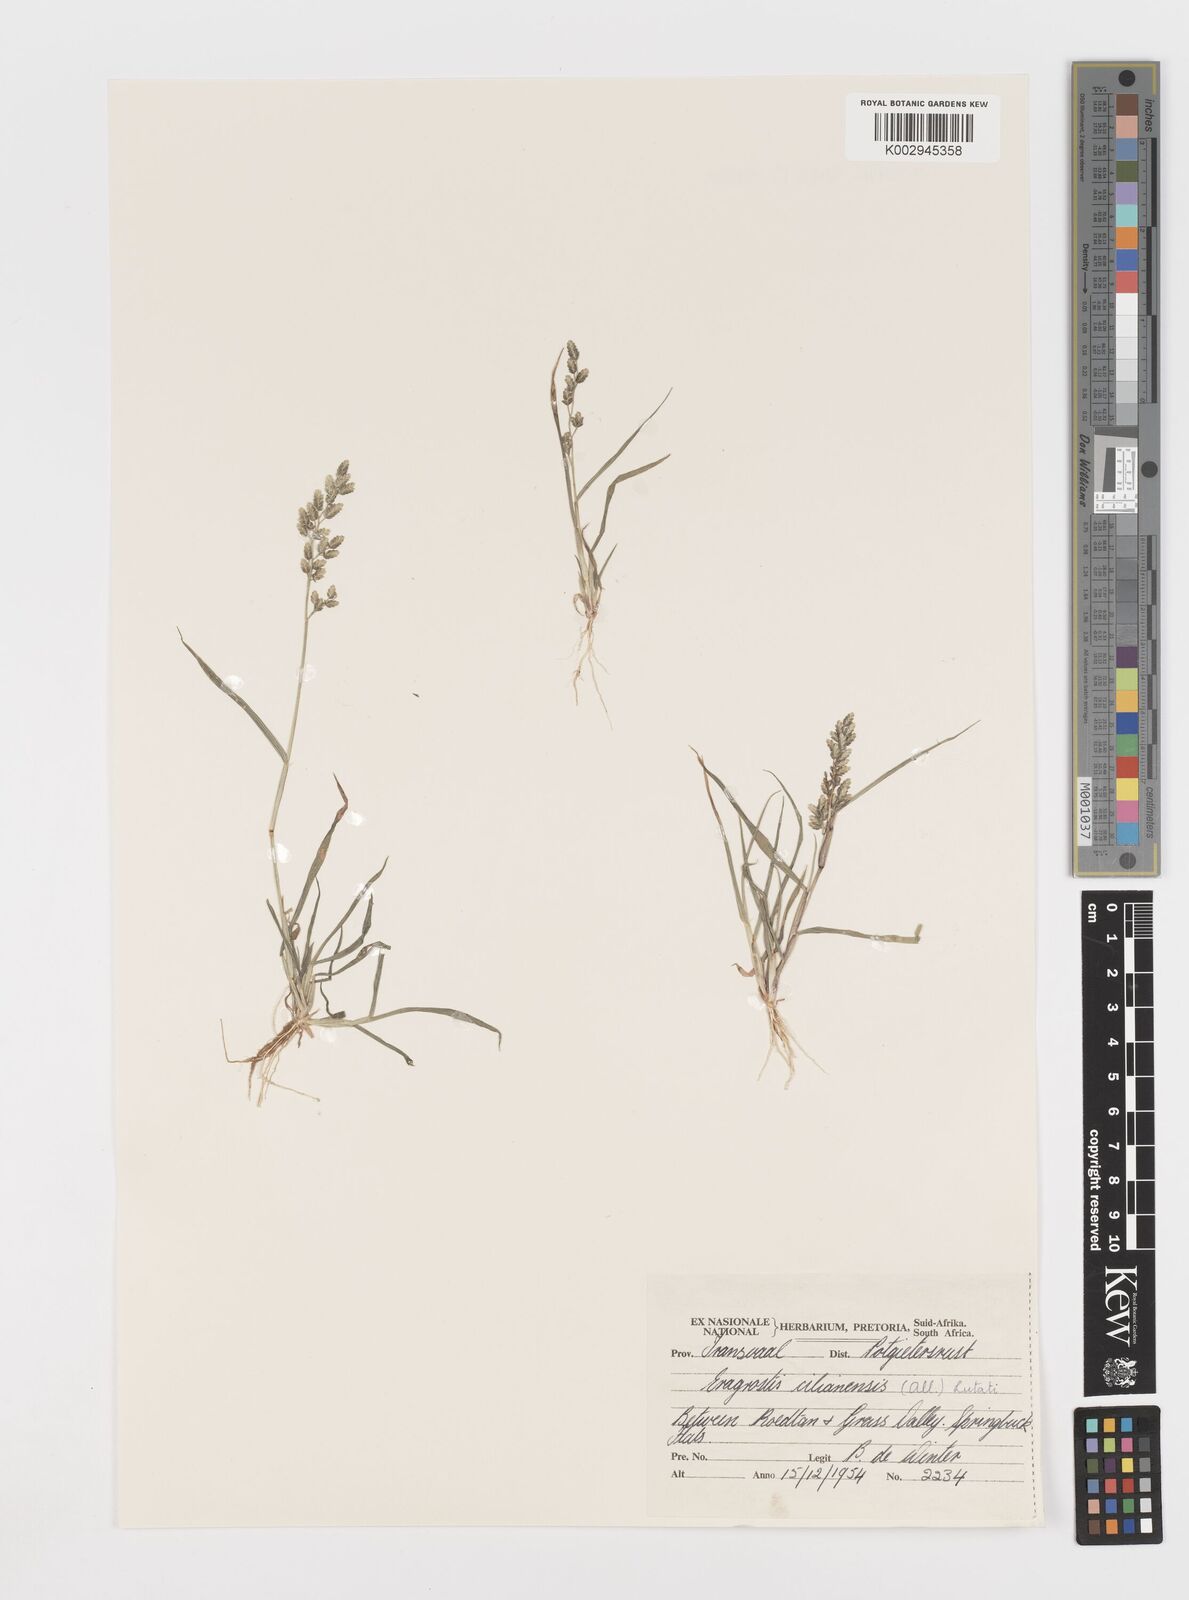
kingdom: Plantae
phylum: Tracheophyta
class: Liliopsida
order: Poales
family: Poaceae
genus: Eragrostis
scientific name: Eragrostis cilianensis
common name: Stinkgrass
